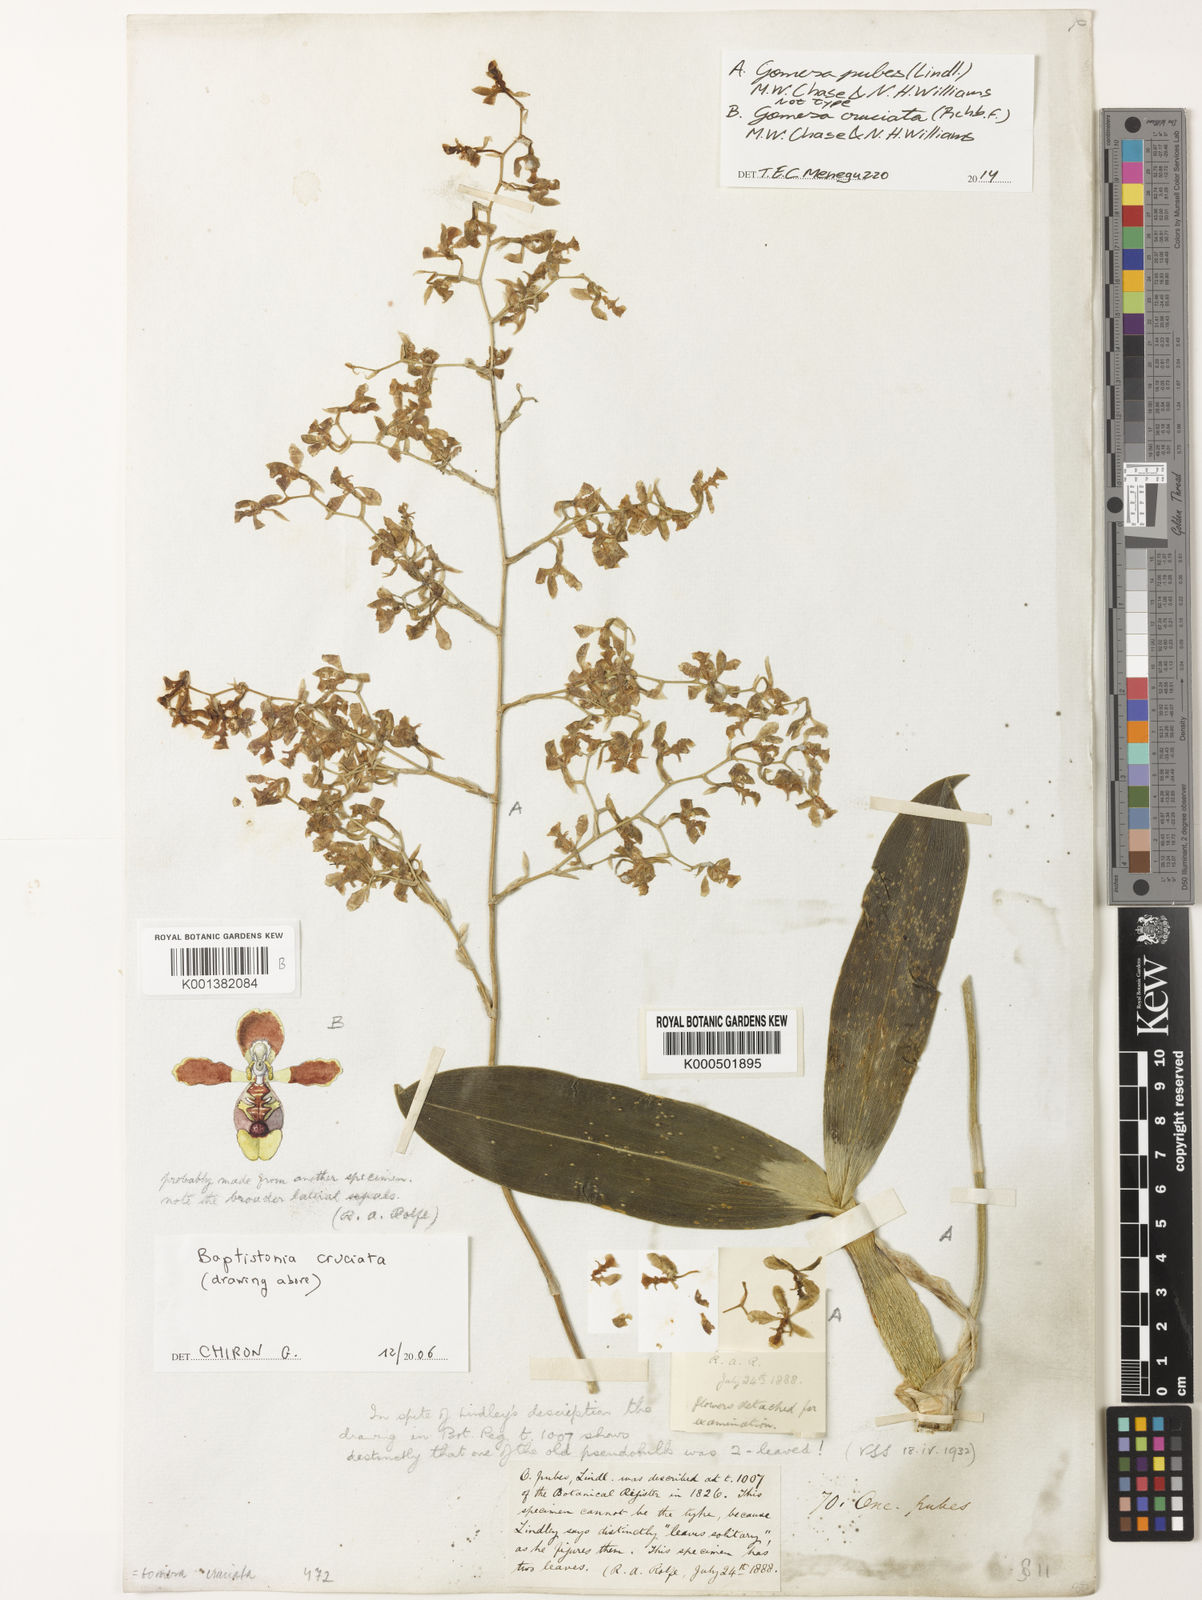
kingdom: Plantae
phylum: Tracheophyta
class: Liliopsida
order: Asparagales
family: Orchidaceae
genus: Gomesa
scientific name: Gomesa pubes
